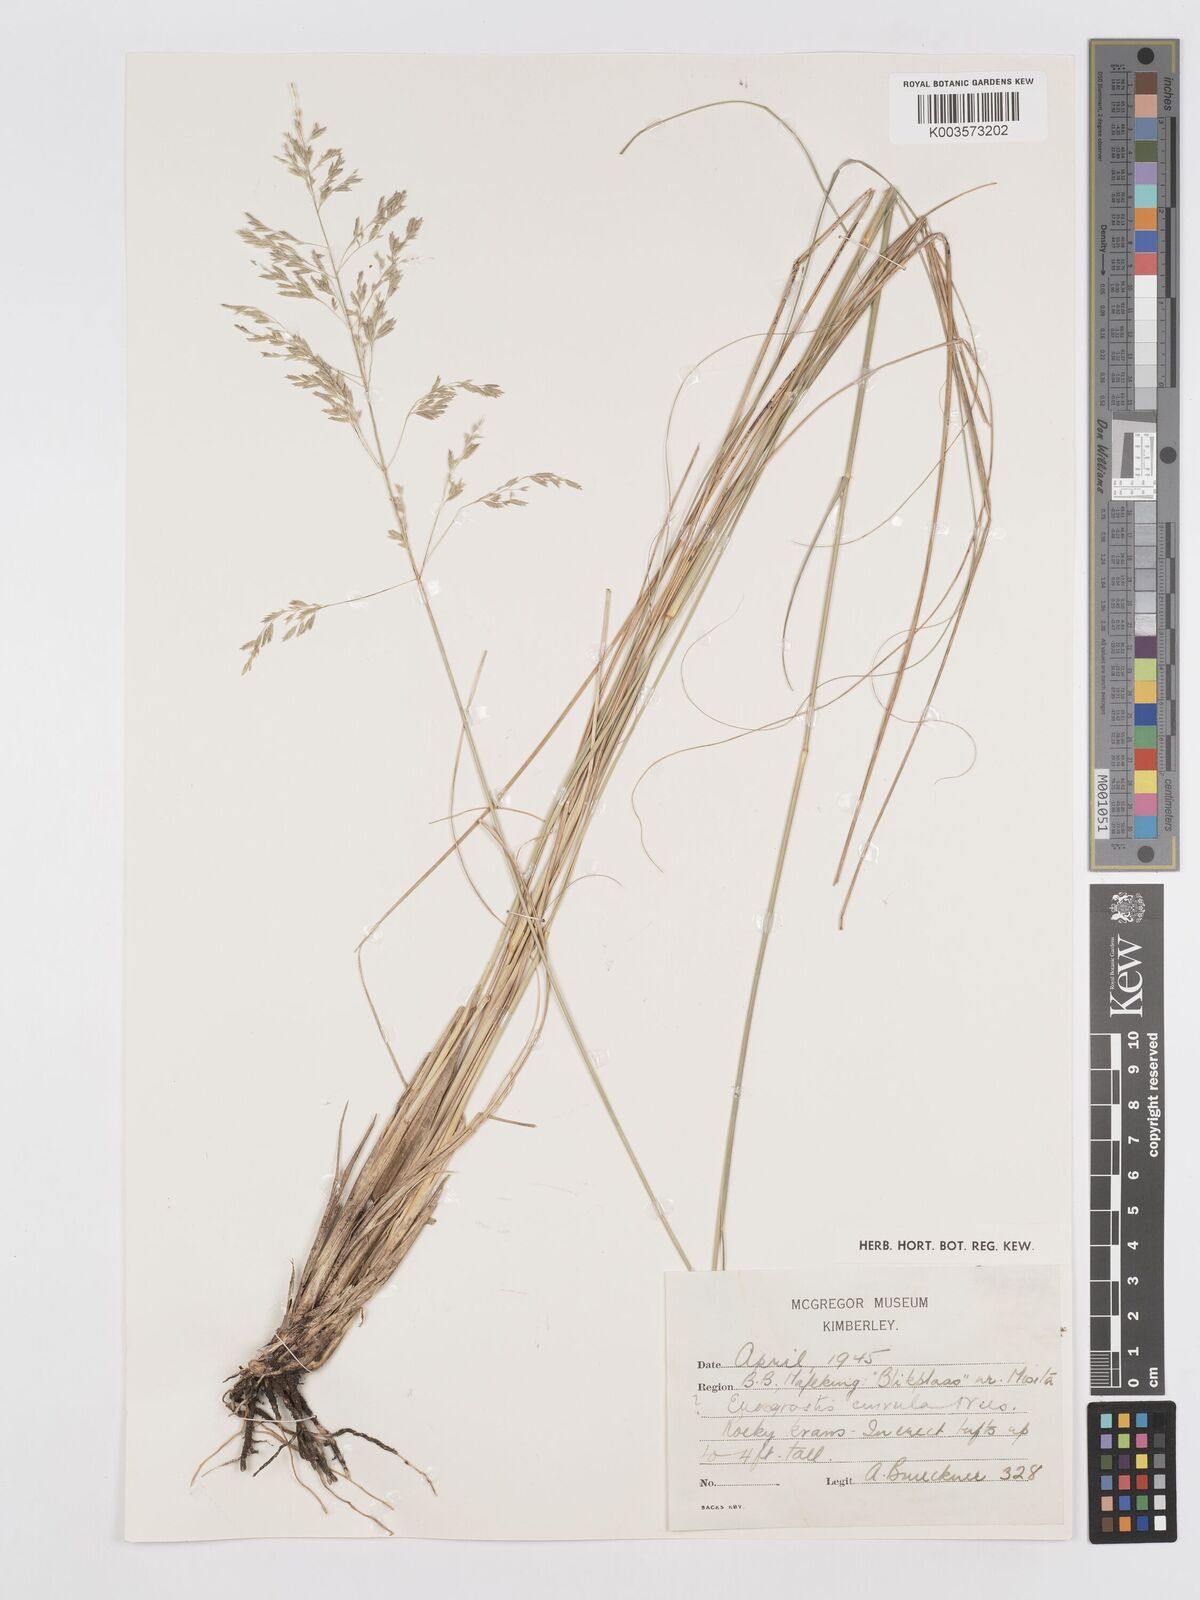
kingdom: Plantae
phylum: Tracheophyta
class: Liliopsida
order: Poales
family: Poaceae
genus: Eragrostis
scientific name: Eragrostis curvula
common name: African love-grass
